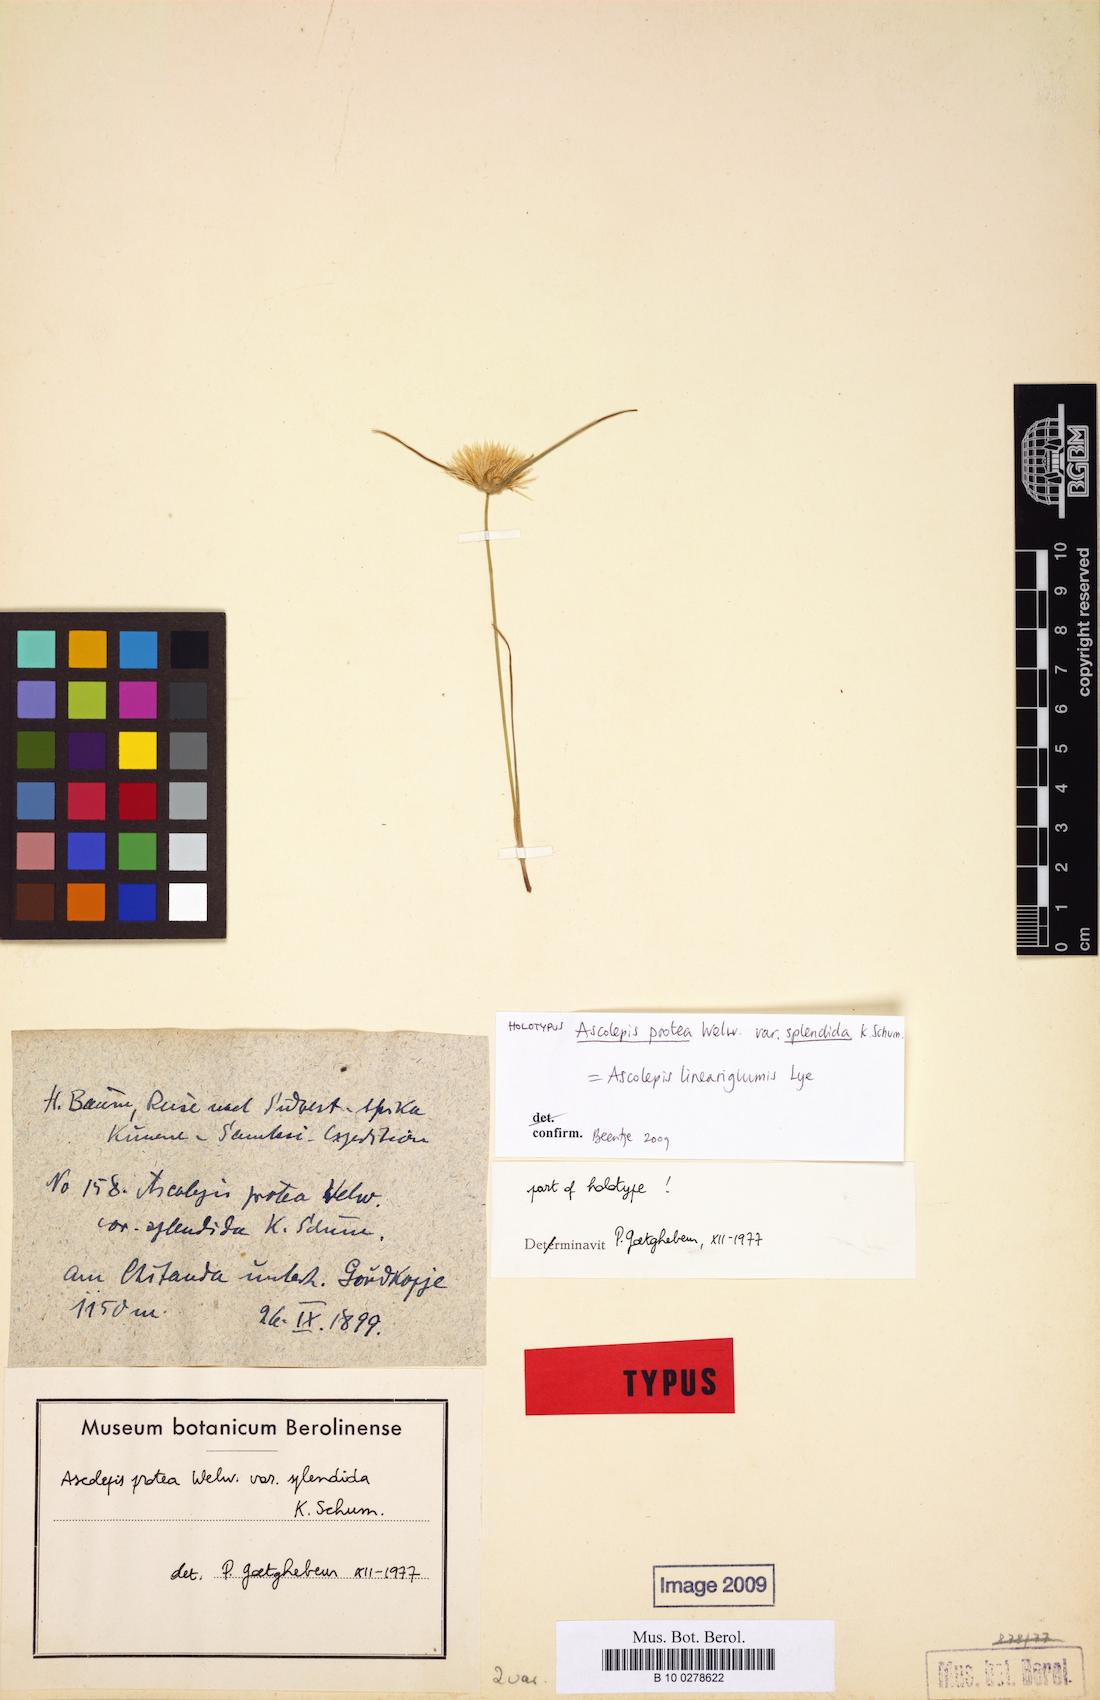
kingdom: Plantae
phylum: Tracheophyta
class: Liliopsida
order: Poales
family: Cyperaceae
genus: Cyperus
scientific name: Cyperus proteus
